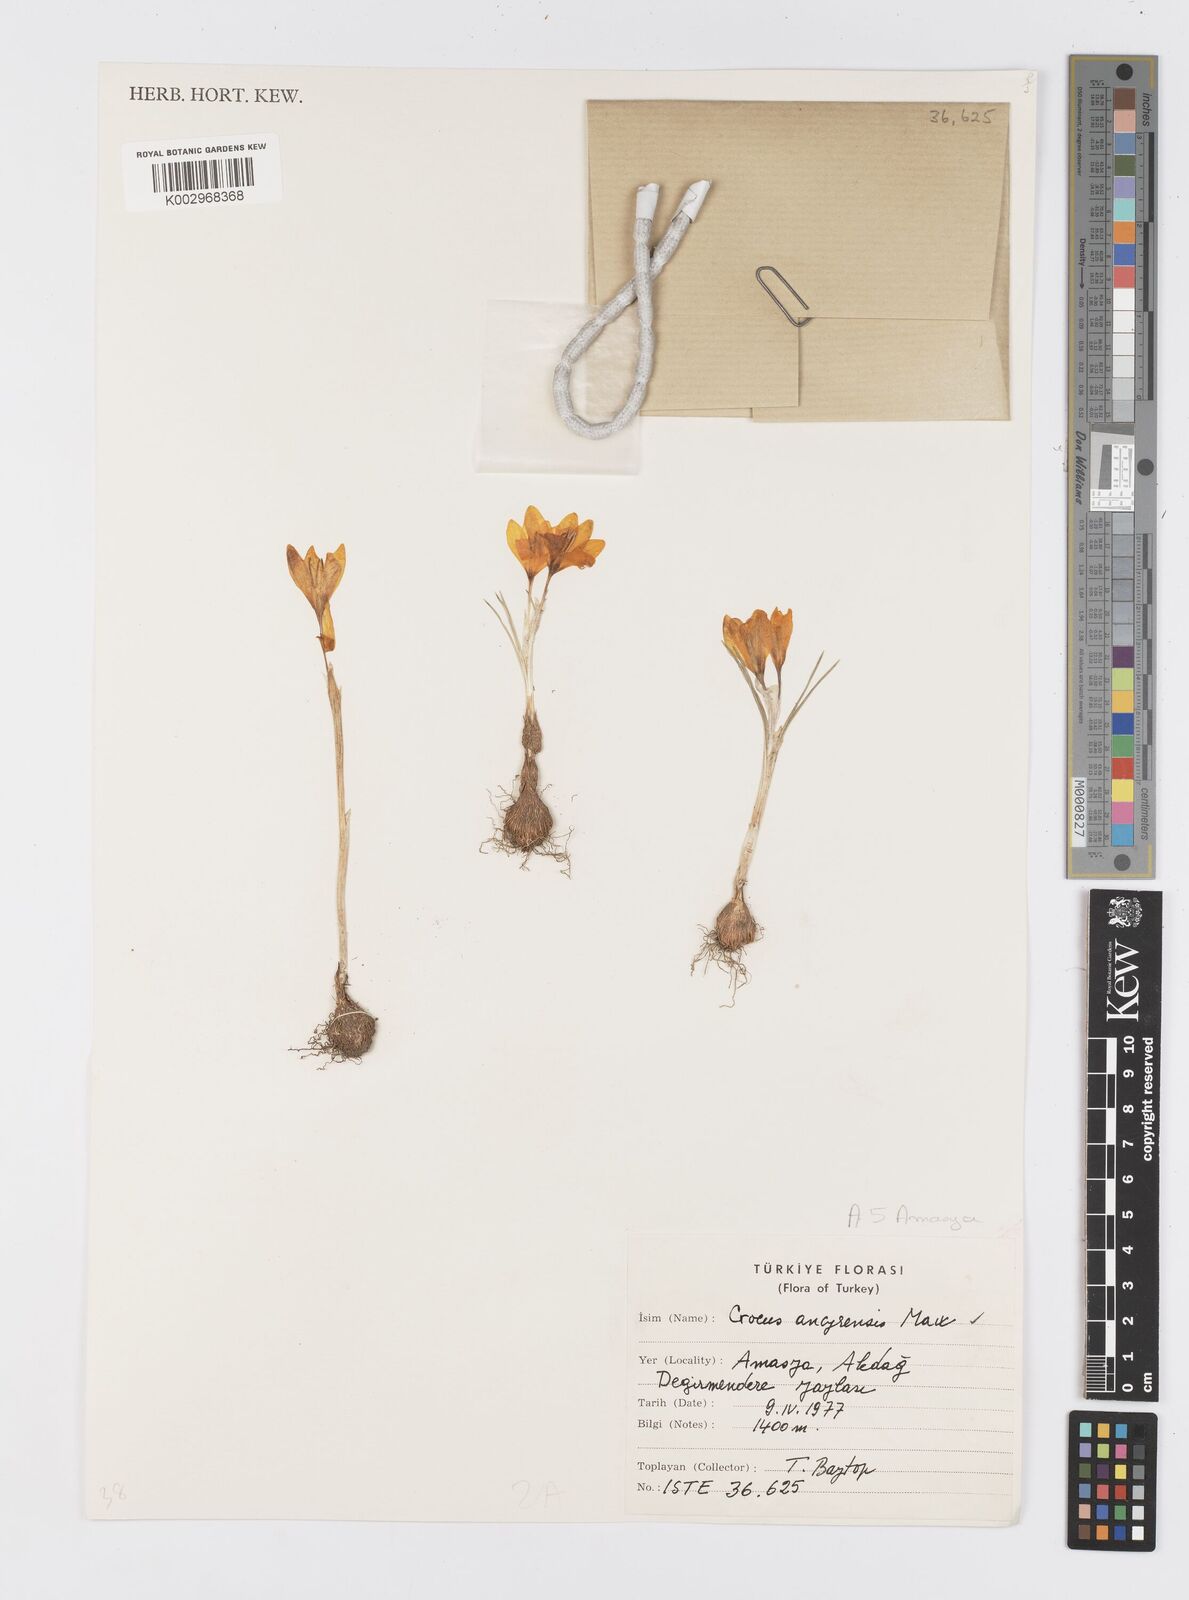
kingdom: Plantae
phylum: Tracheophyta
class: Liliopsida
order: Asparagales
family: Iridaceae
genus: Crocus
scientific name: Crocus ancyrensis
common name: Ankara crocus
